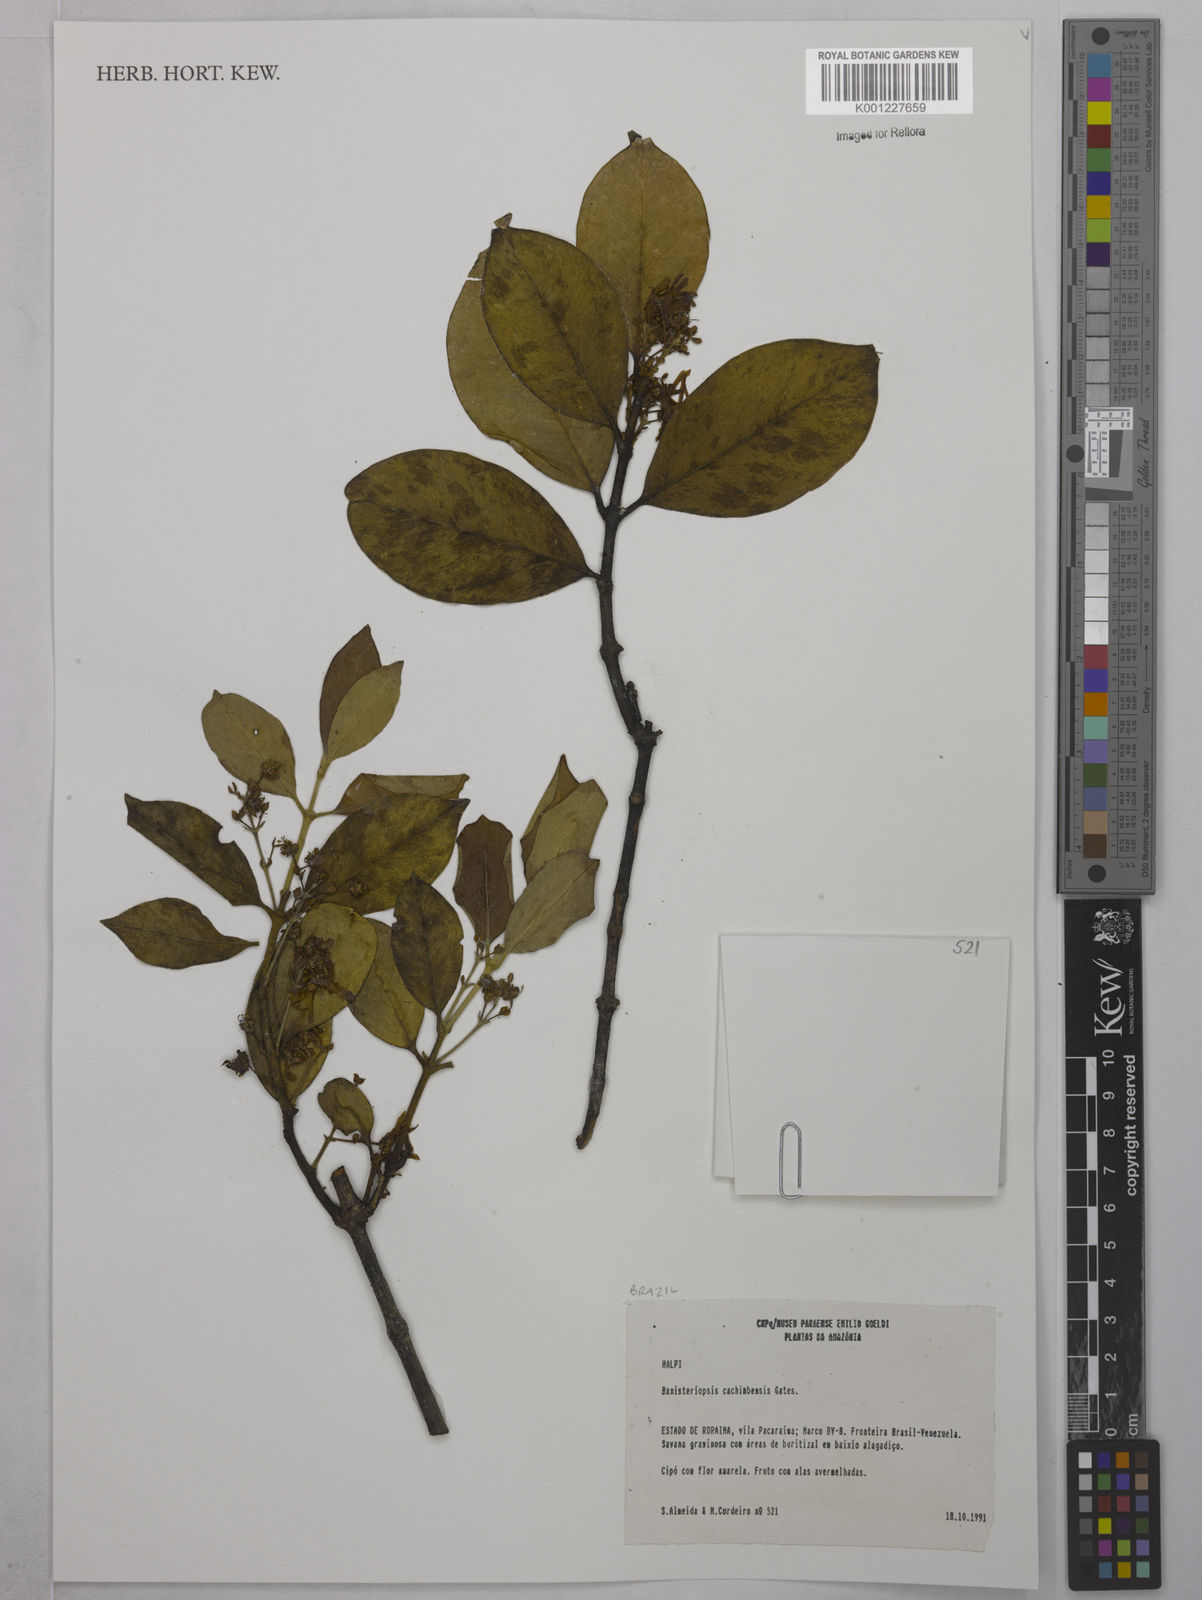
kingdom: Plantae
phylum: Tracheophyta
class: Magnoliopsida
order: Malpighiales
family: Malpighiaceae
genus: Diplopterys
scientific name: Diplopterys cachimbensis
